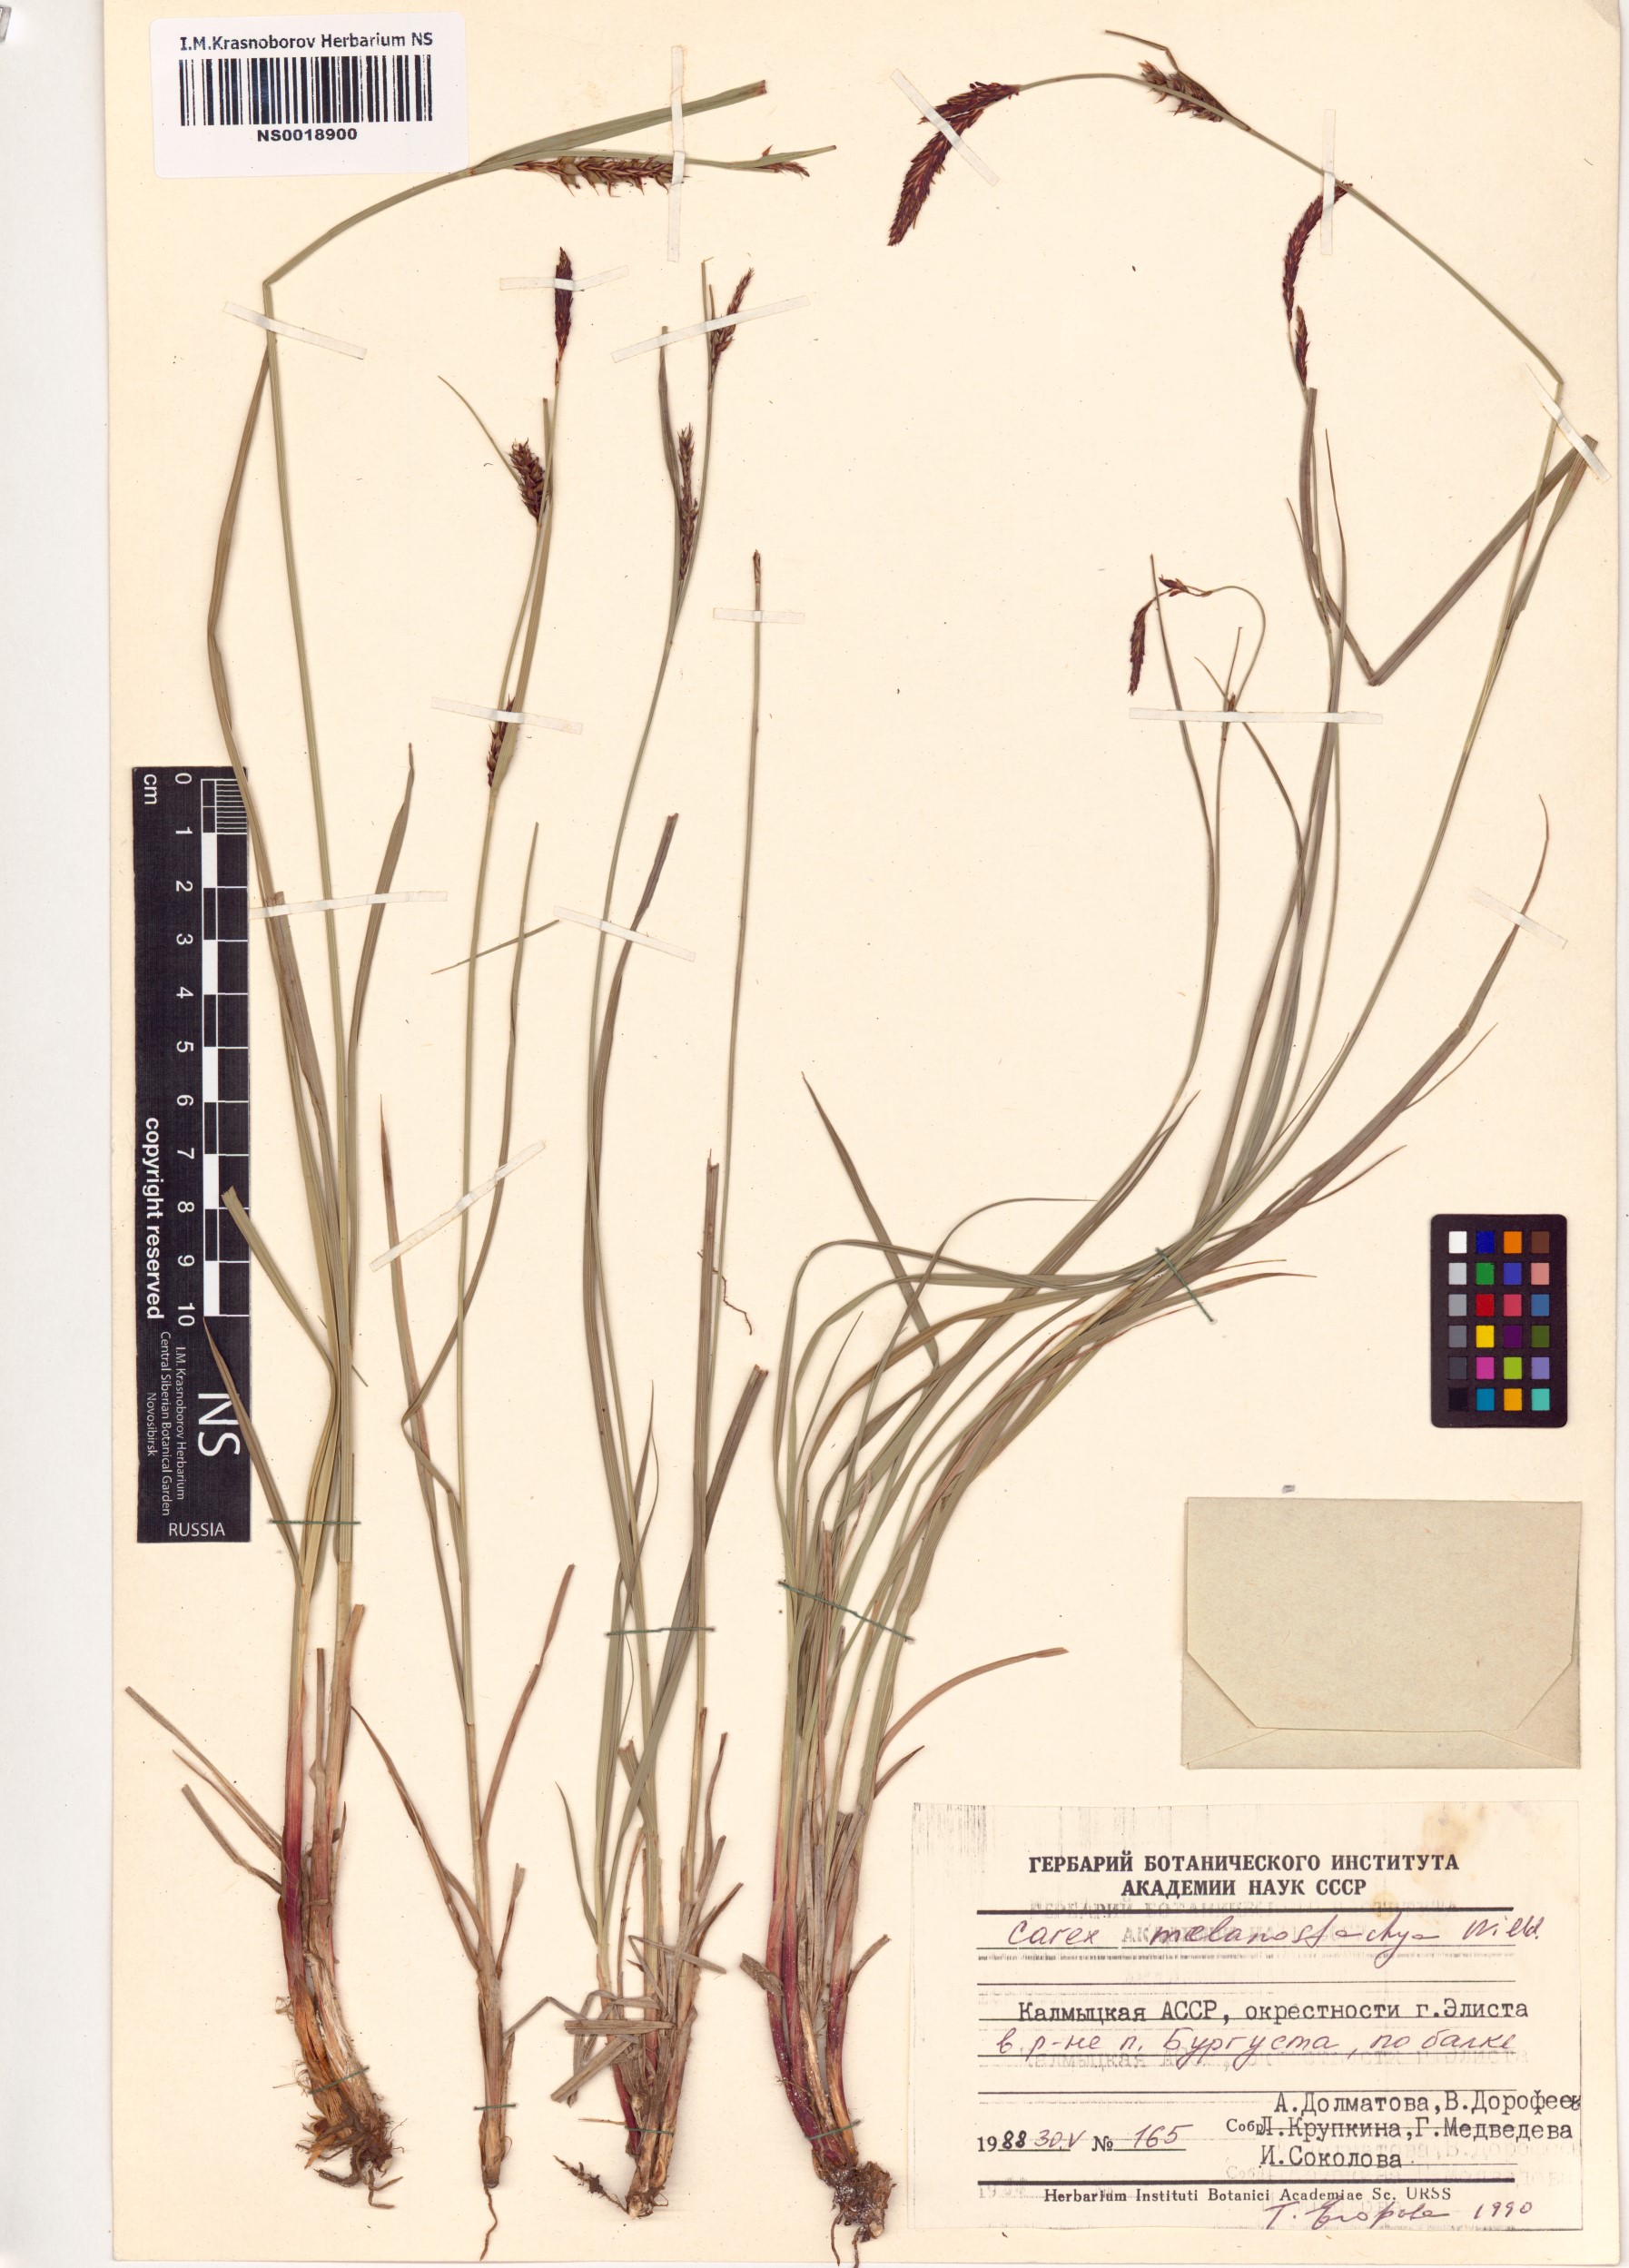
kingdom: Plantae
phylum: Tracheophyta
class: Liliopsida
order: Poales
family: Cyperaceae
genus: Carex
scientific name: Carex melanostachya
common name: Black-spiked sedge
